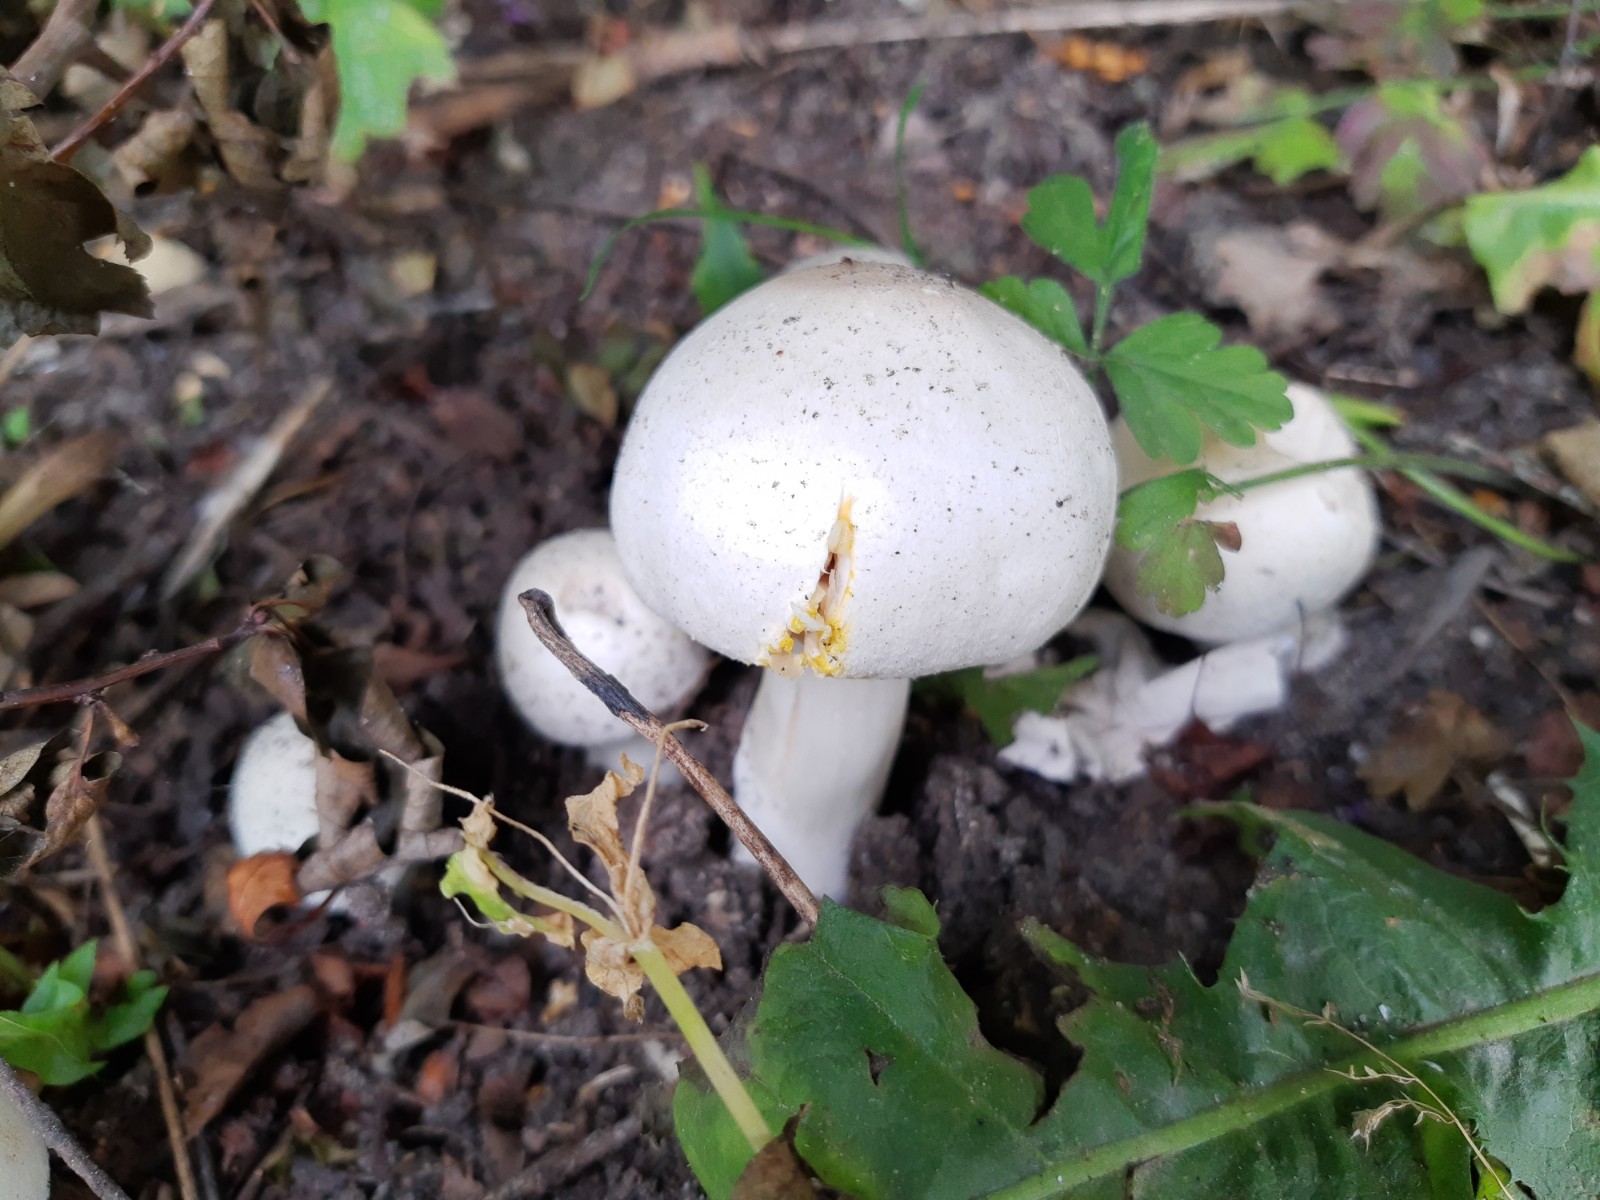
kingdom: Fungi
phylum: Basidiomycota
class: Agaricomycetes
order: Agaricales
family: Agaricaceae
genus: Agaricus
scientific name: Agaricus xanthodermus
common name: karbol-champignon
